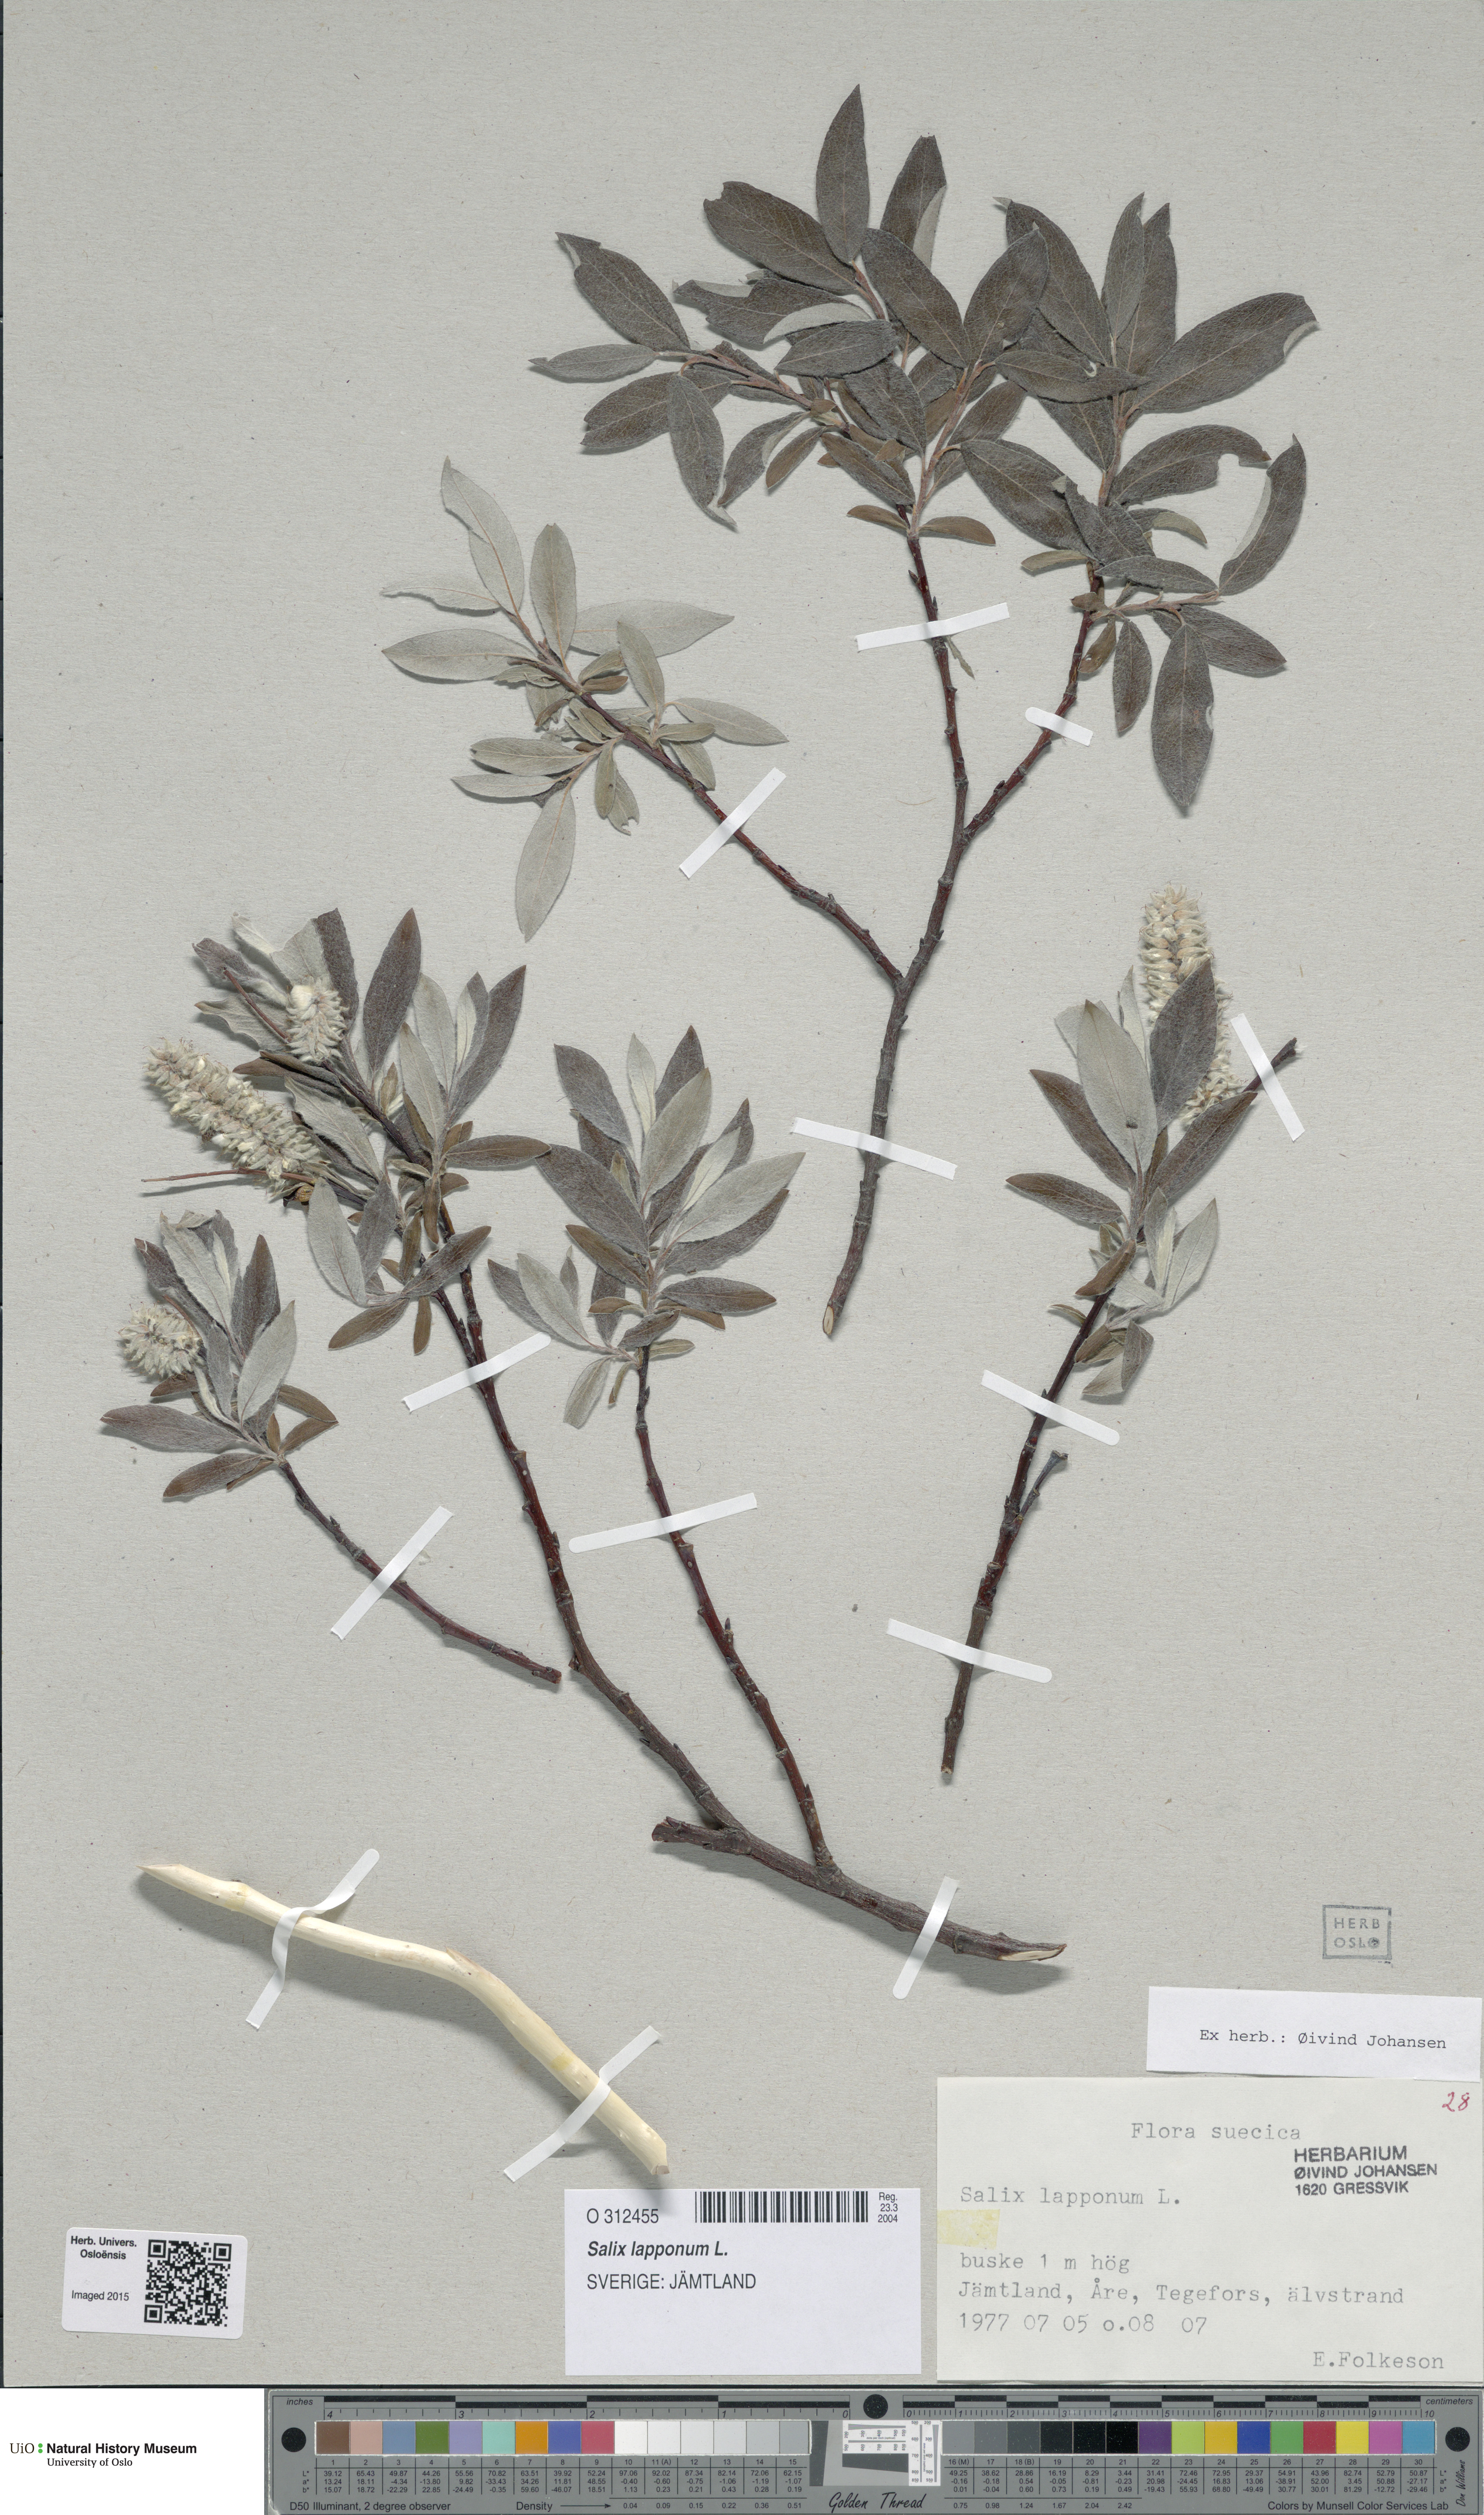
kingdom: Plantae
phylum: Tracheophyta
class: Magnoliopsida
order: Malpighiales
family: Salicaceae
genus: Salix
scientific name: Salix lapponum
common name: Downy willow
